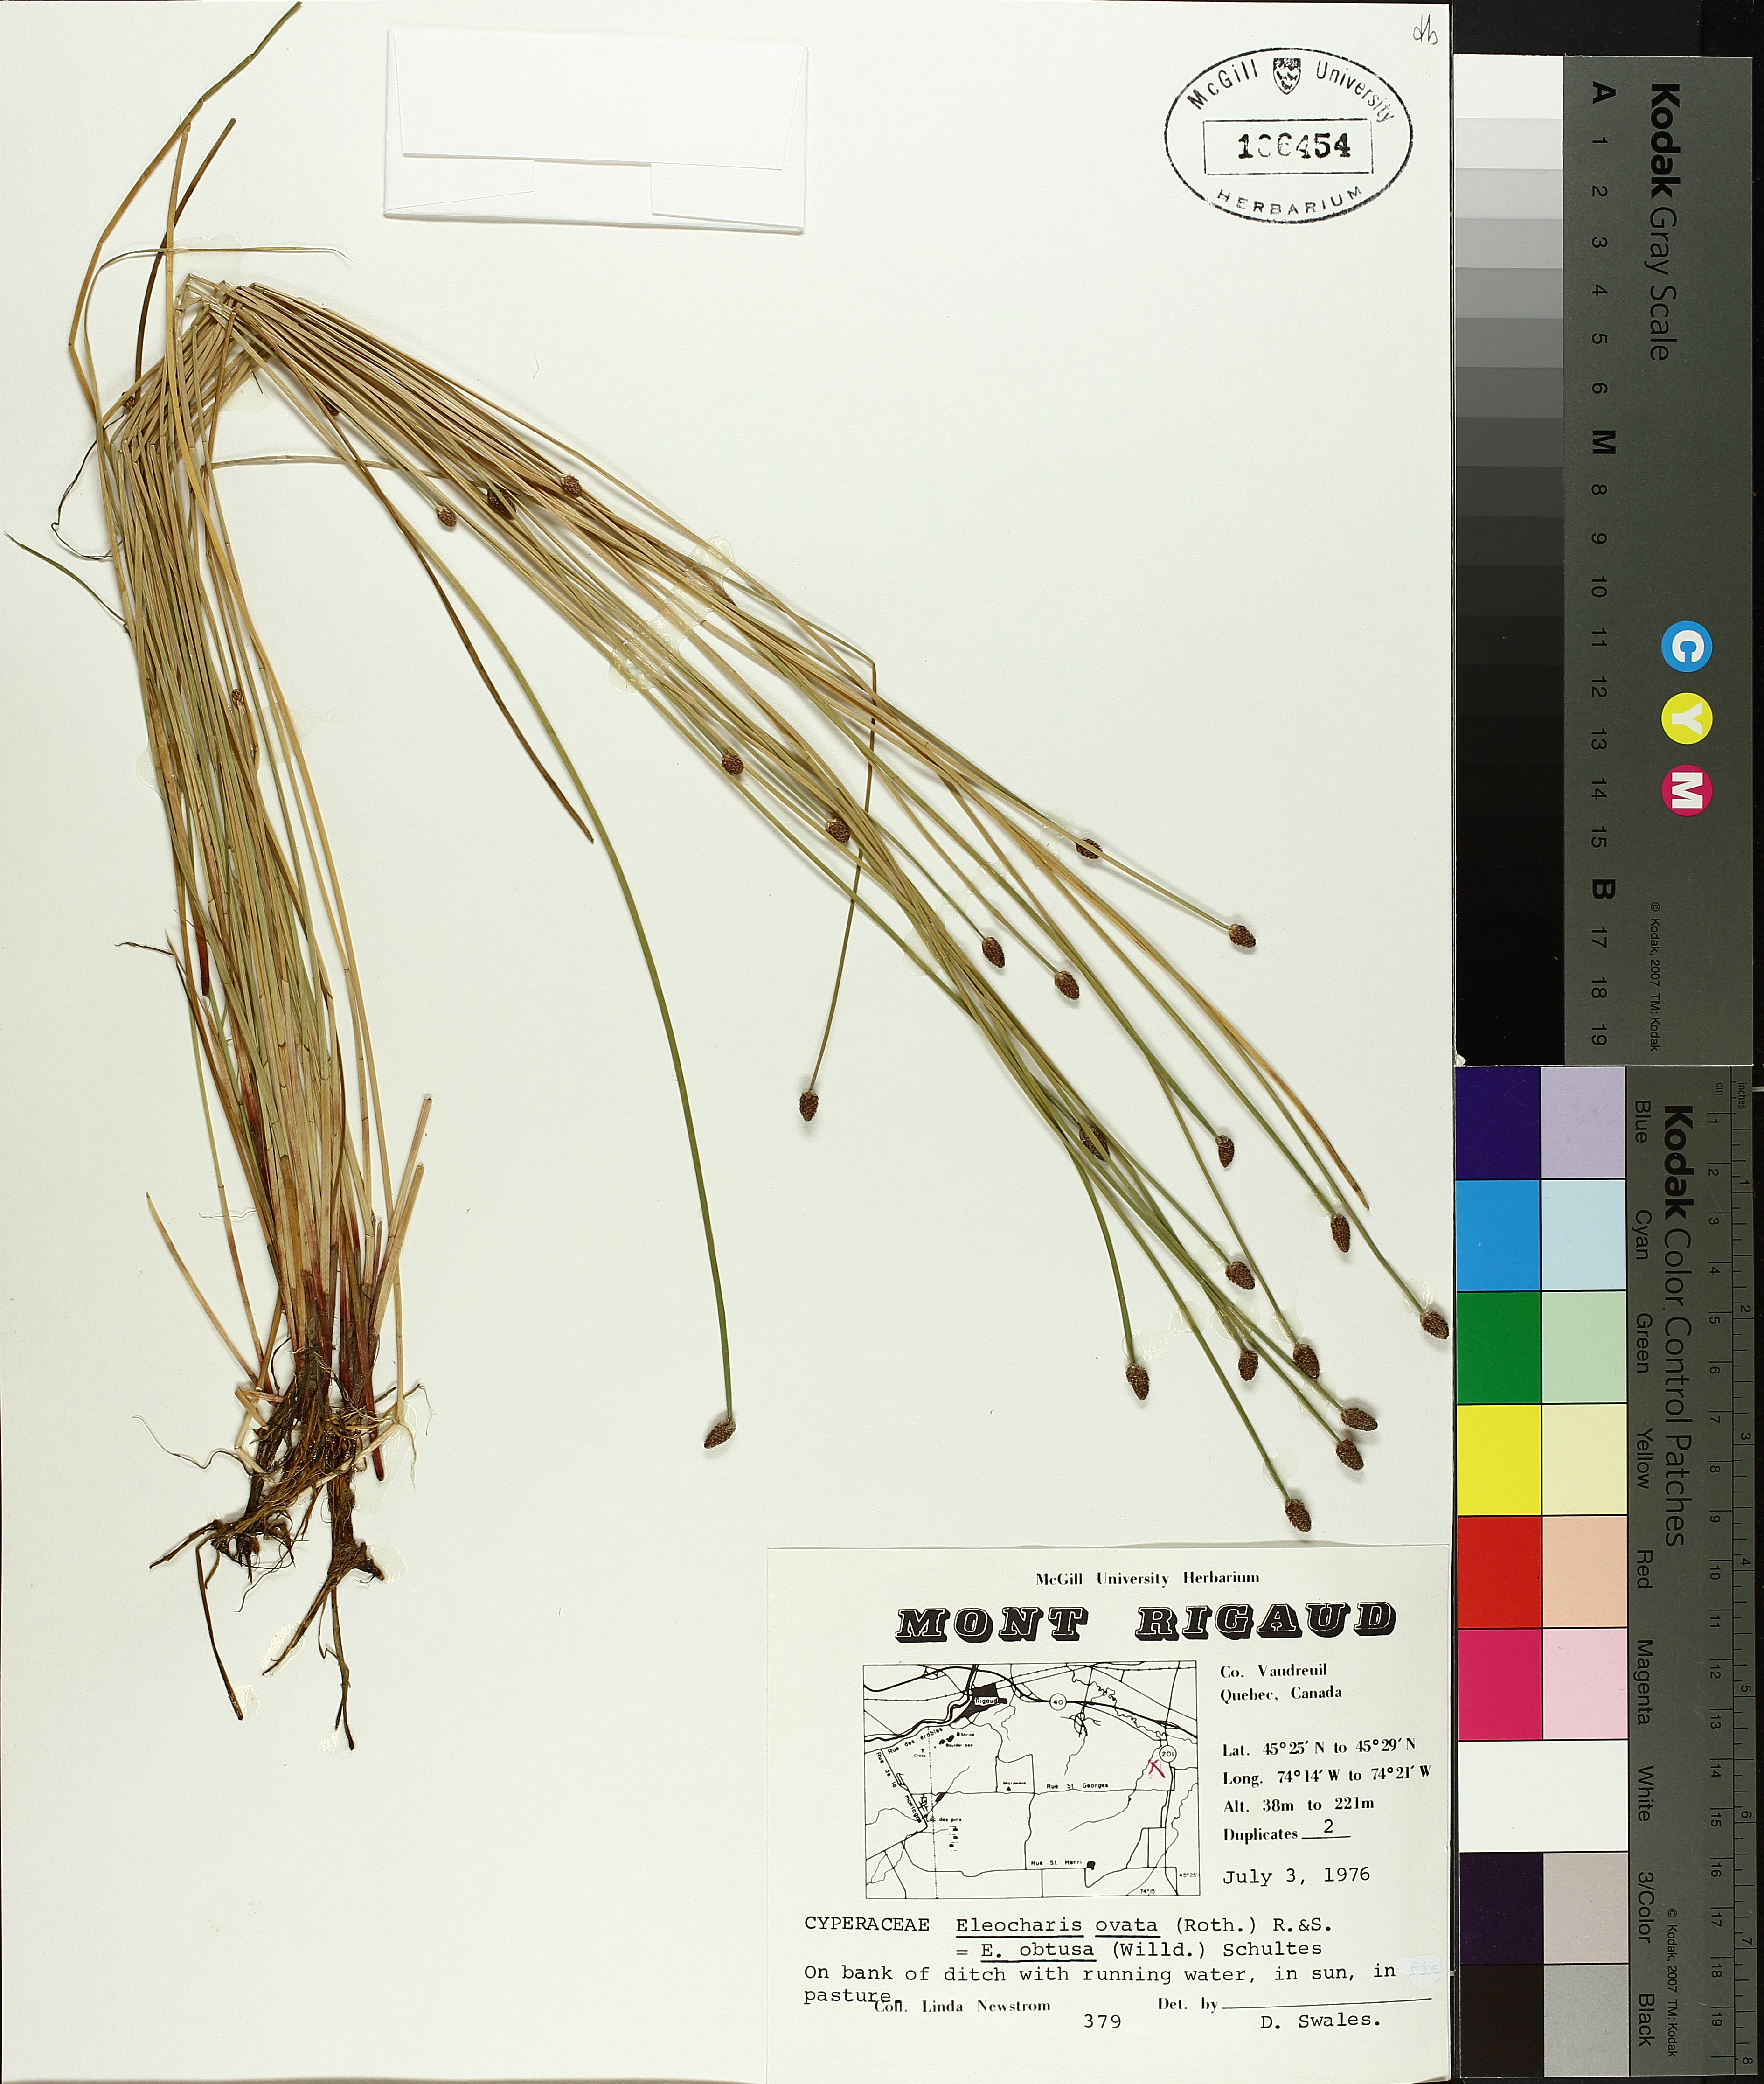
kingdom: Plantae
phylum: Tracheophyta
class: Liliopsida
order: Poales
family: Cyperaceae
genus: Eleocharis
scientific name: Eleocharis obtusa
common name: Blunt spikerush
